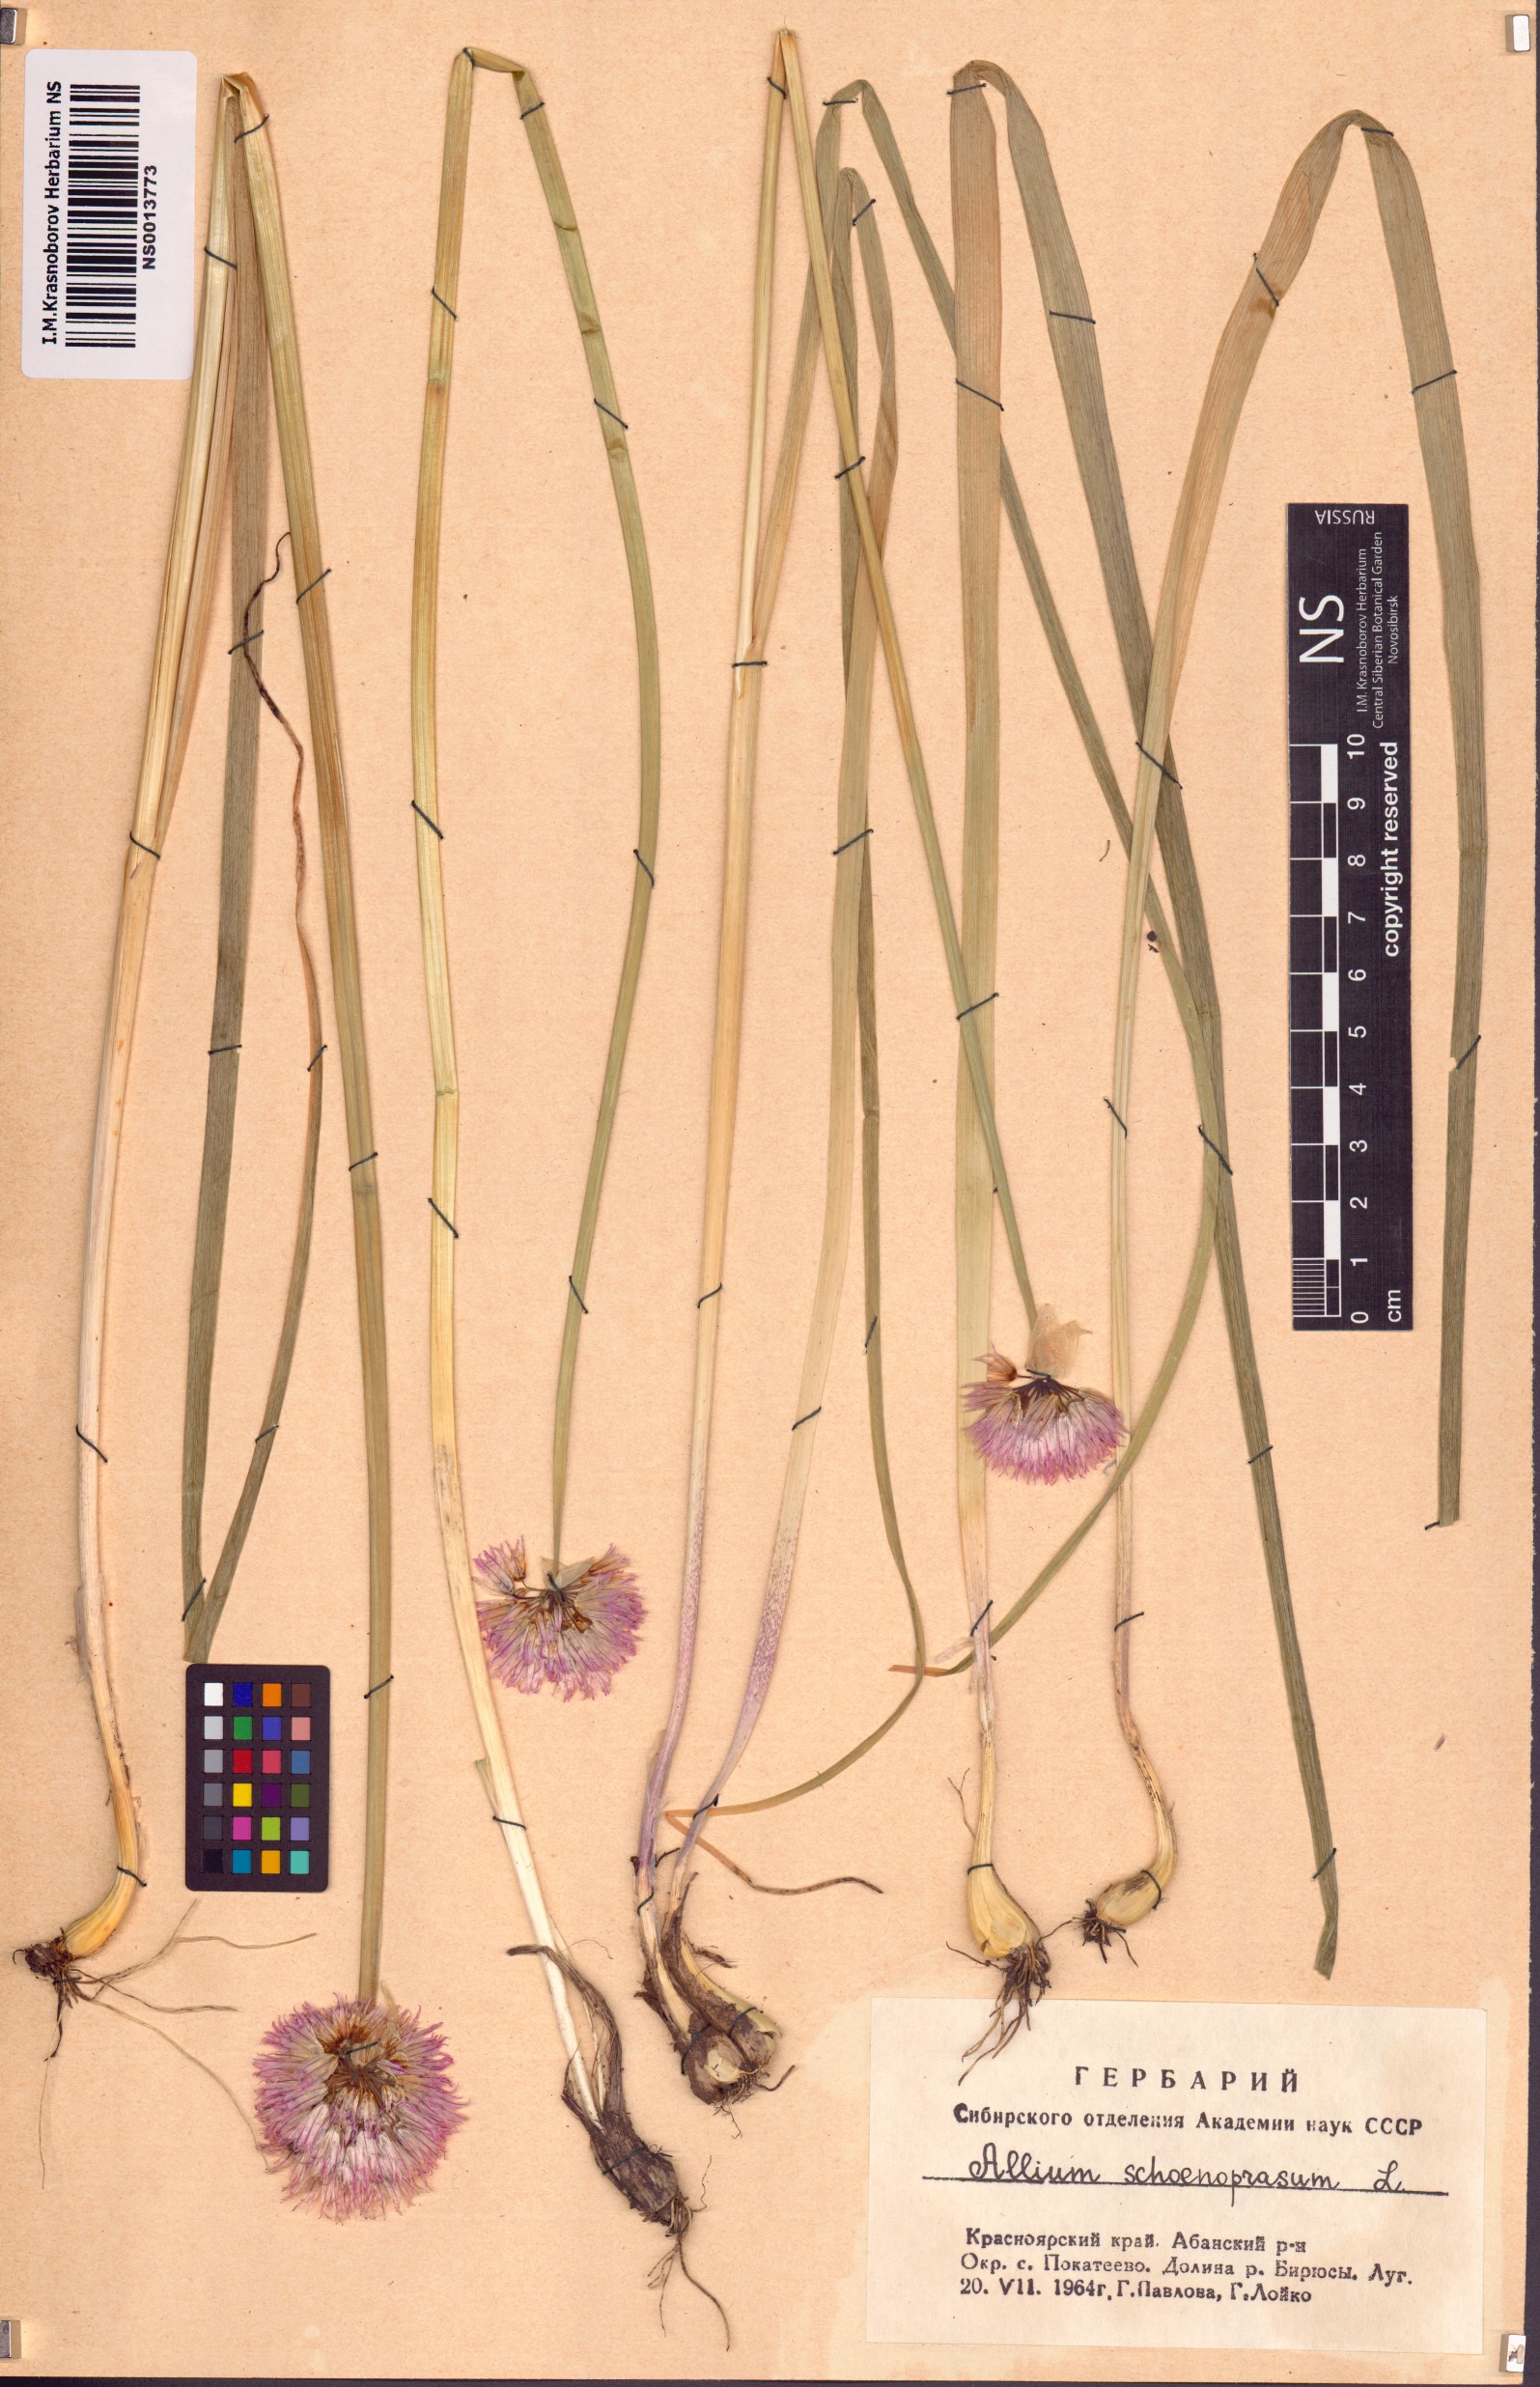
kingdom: Plantae
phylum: Tracheophyta
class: Liliopsida
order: Asparagales
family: Amaryllidaceae
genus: Allium
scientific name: Allium schoenoprasum
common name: Chives
